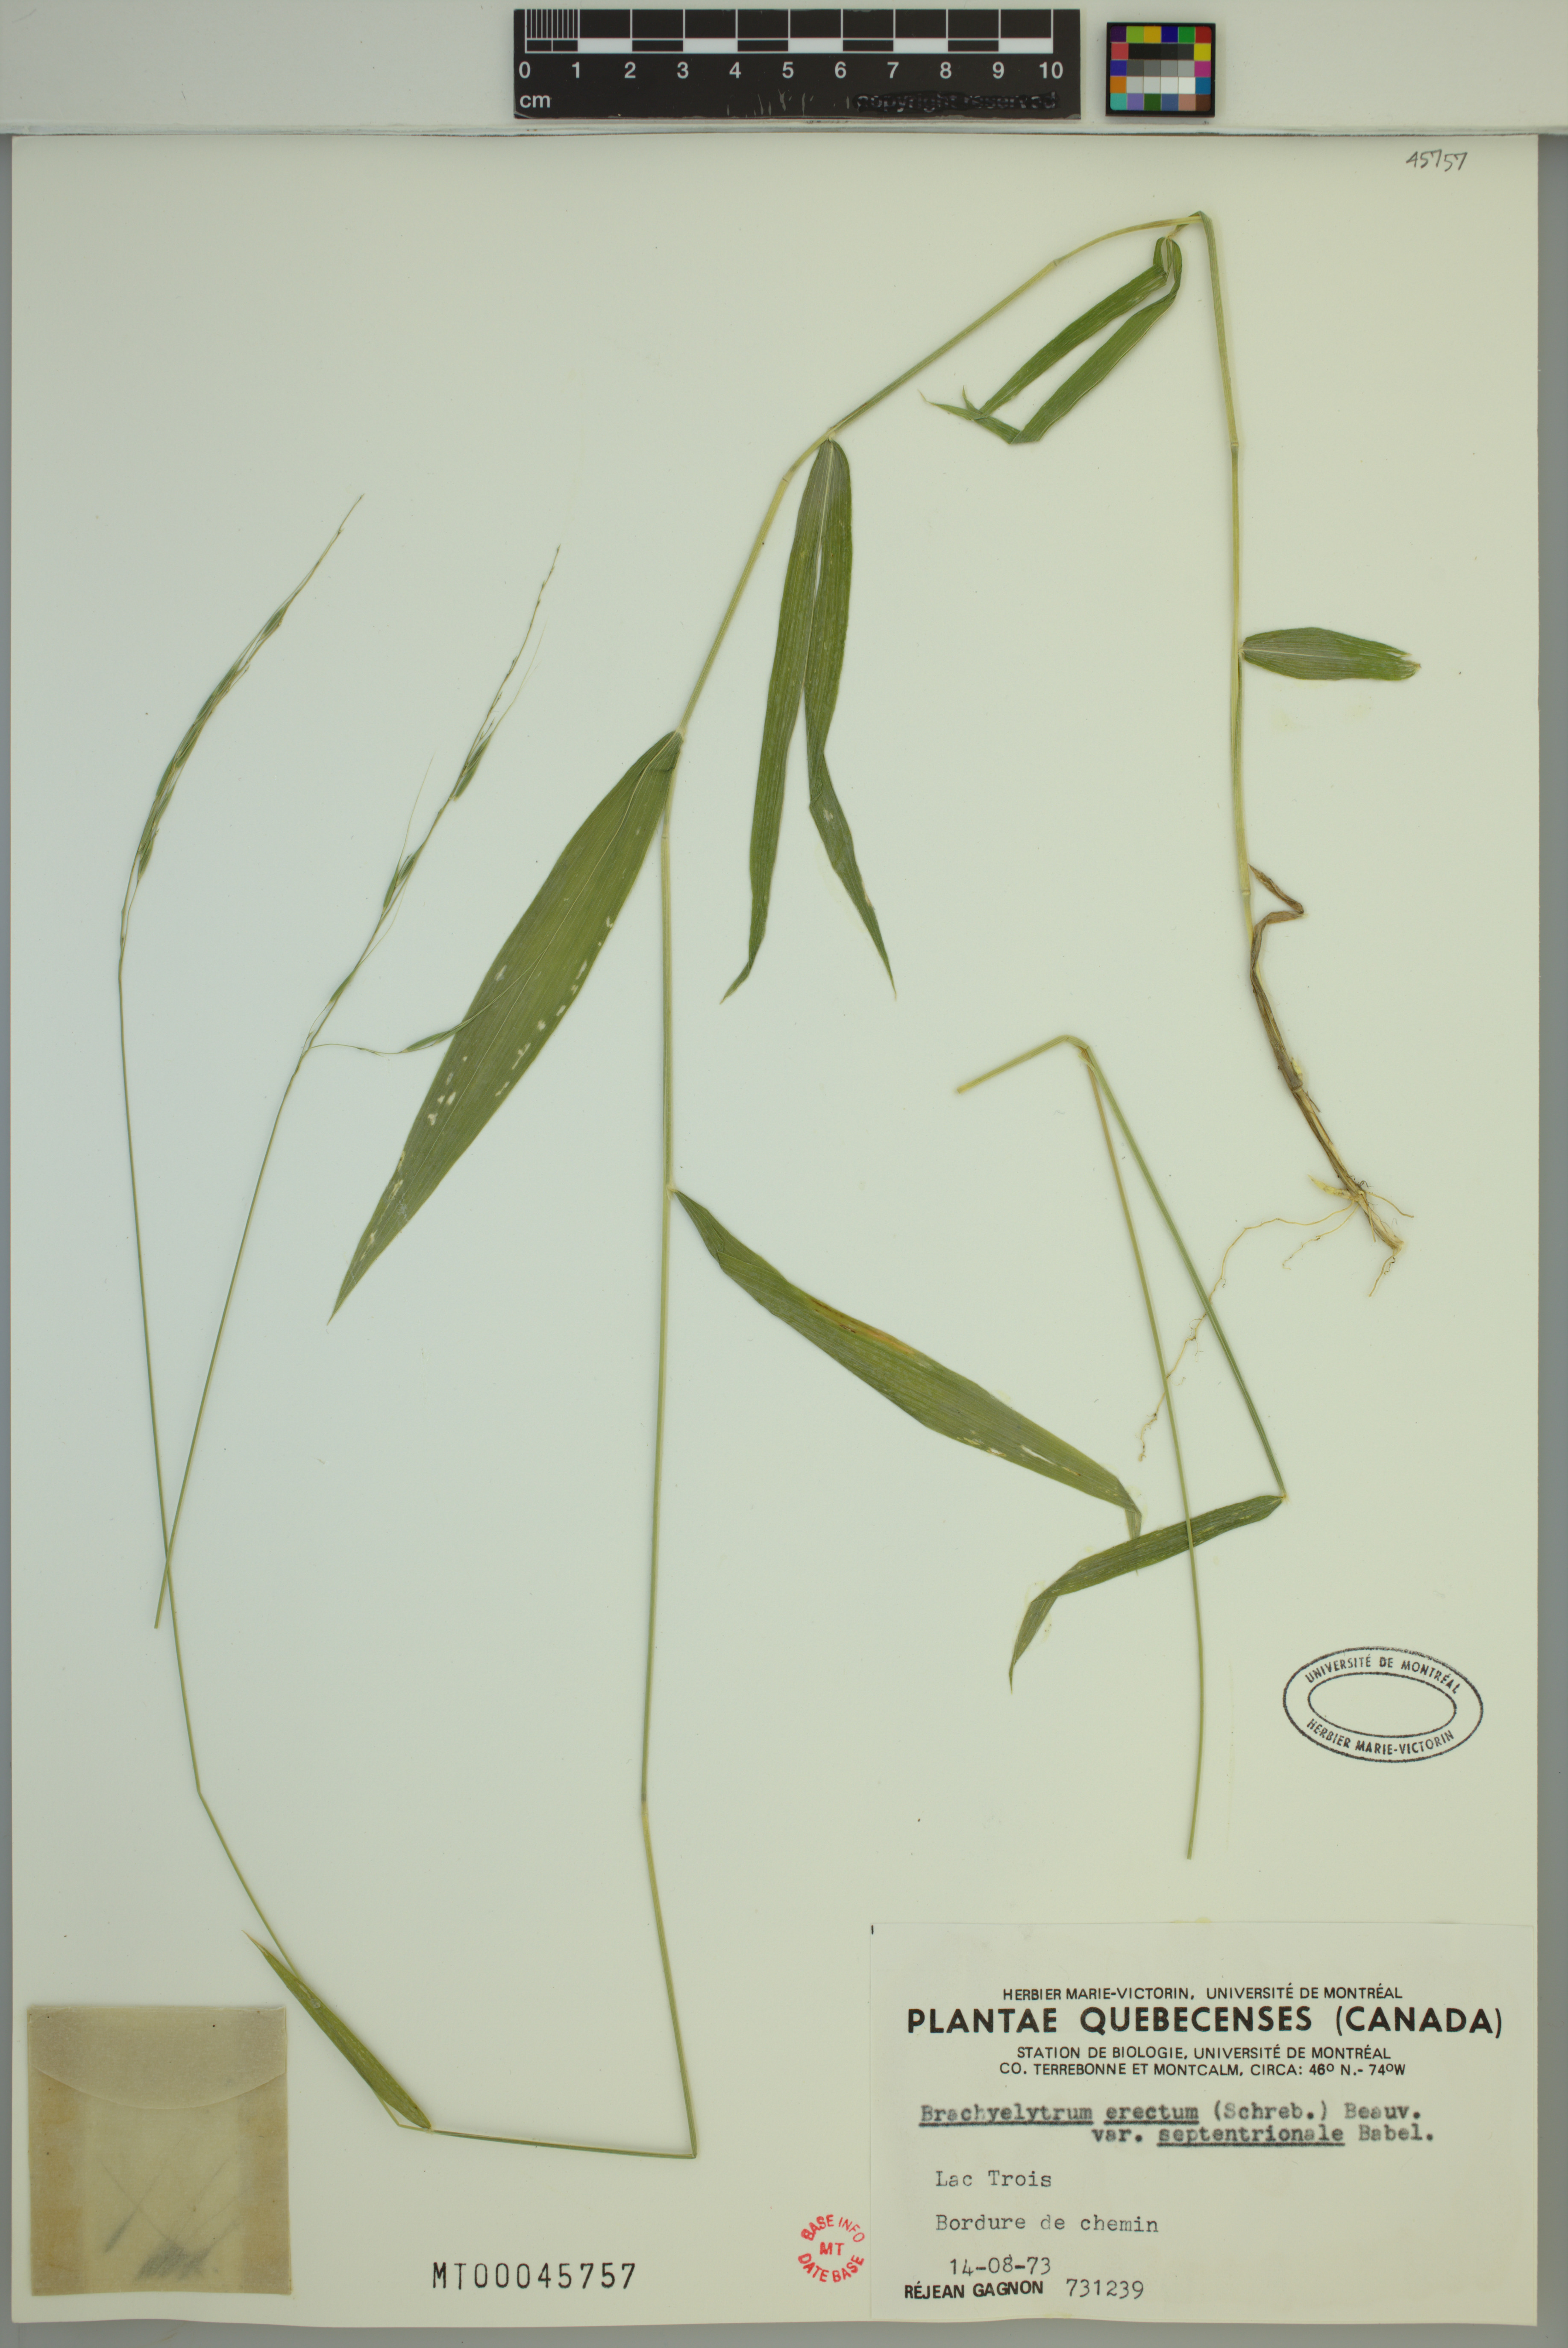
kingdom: Plantae
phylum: Tracheophyta
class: Liliopsida
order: Poales
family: Poaceae
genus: Brachyelytrum
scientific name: Brachyelytrum aristosum
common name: Northern shorthusk
